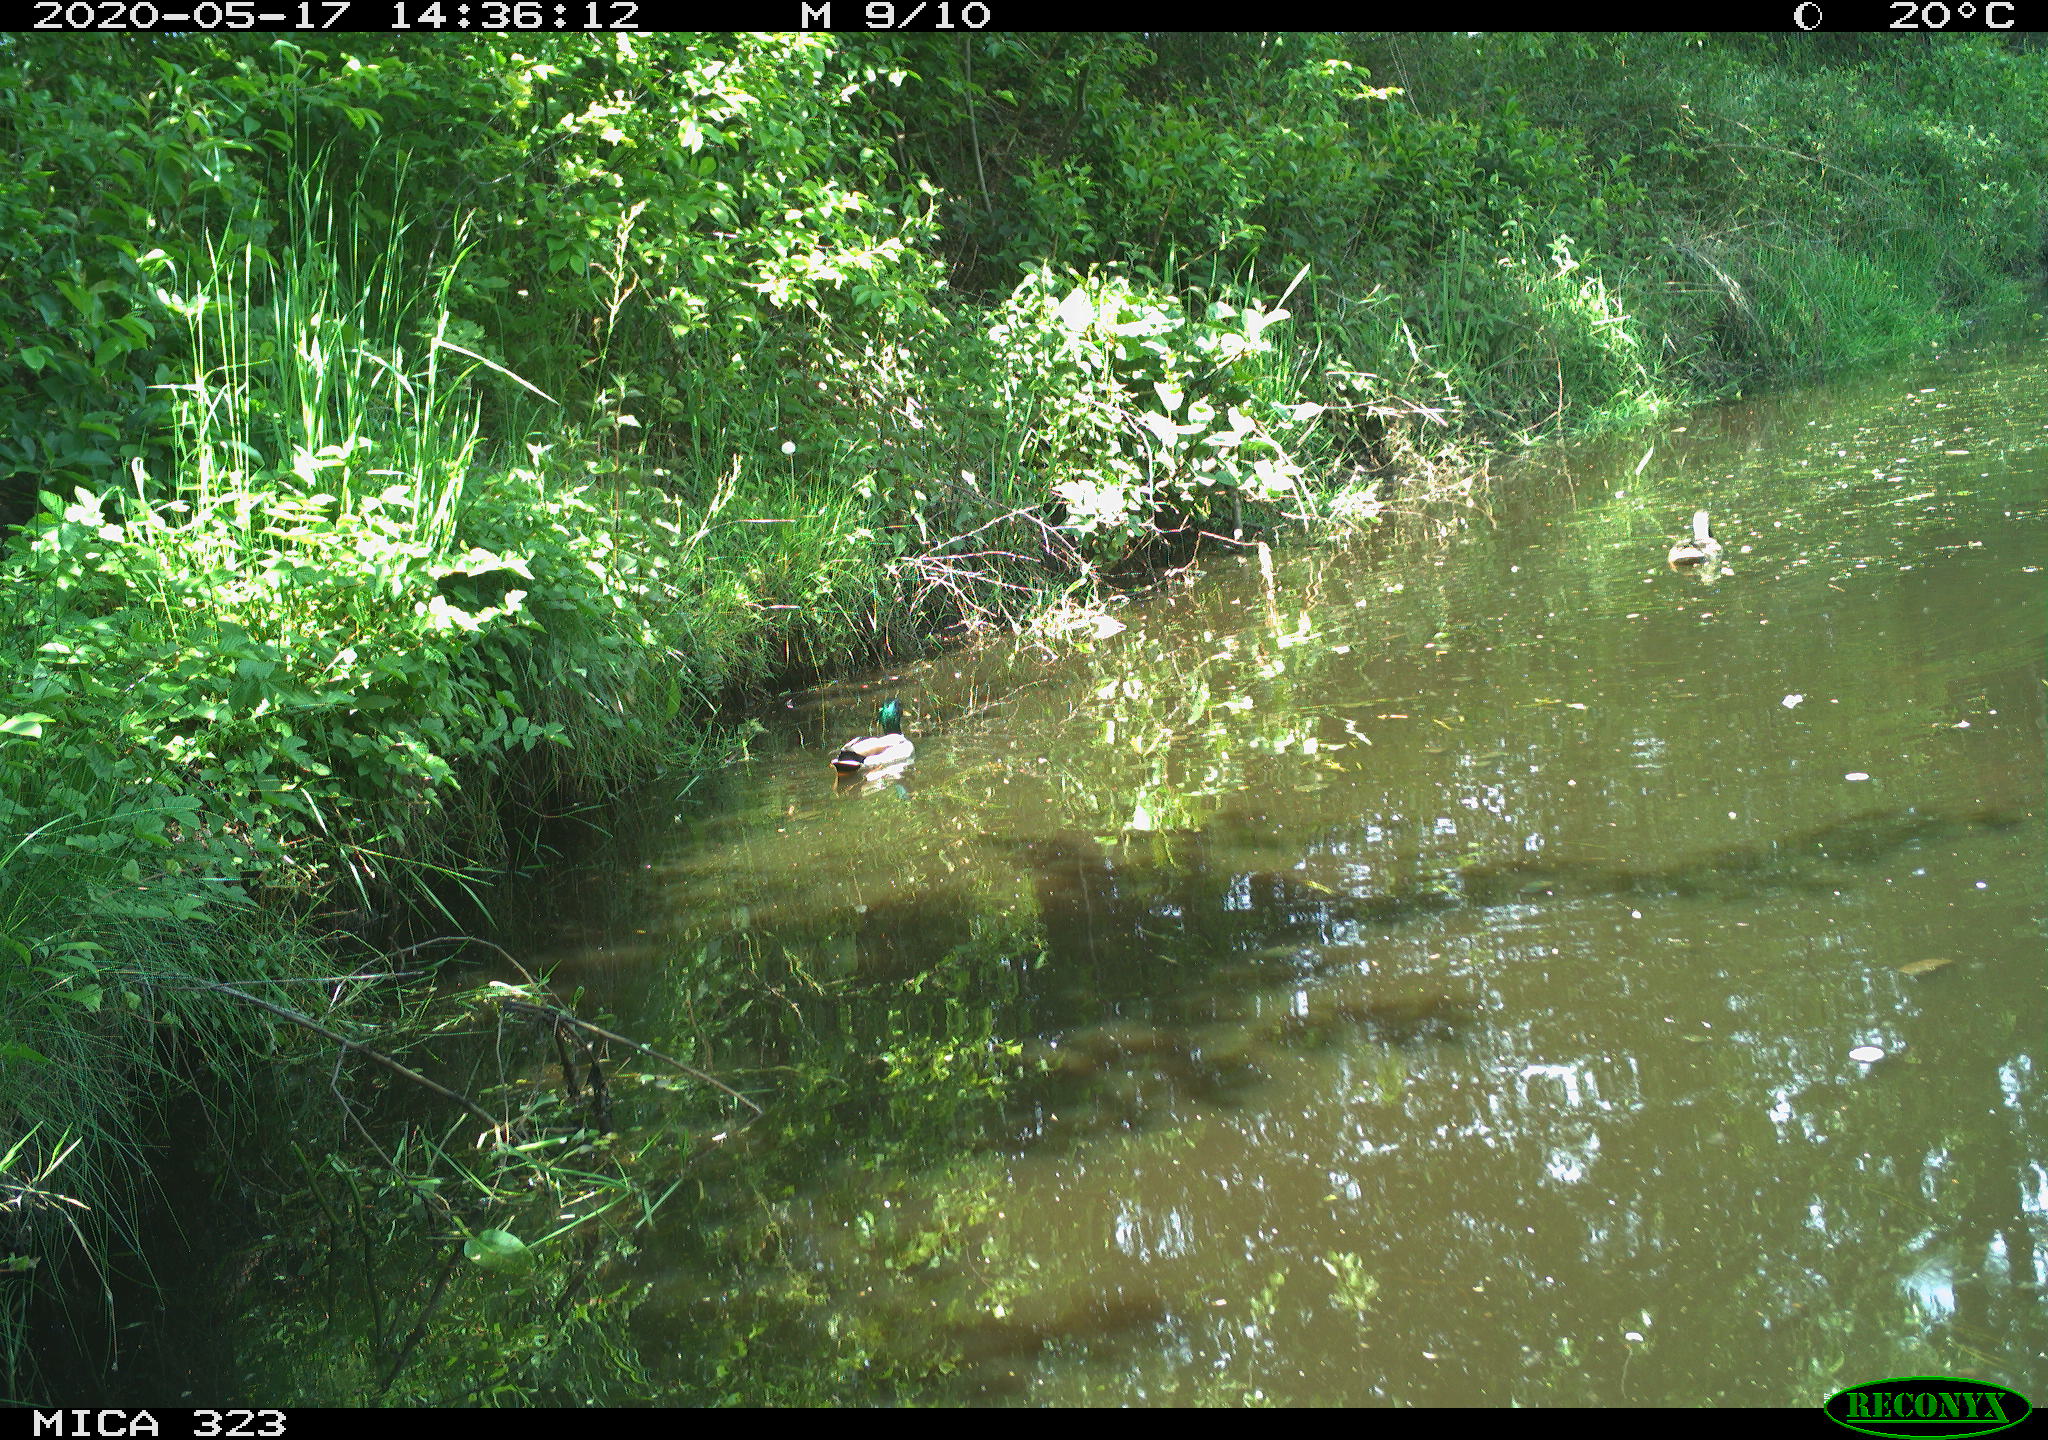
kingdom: Animalia
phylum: Chordata
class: Aves
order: Anseriformes
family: Anatidae
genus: Anas
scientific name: Anas platyrhynchos
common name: Mallard
